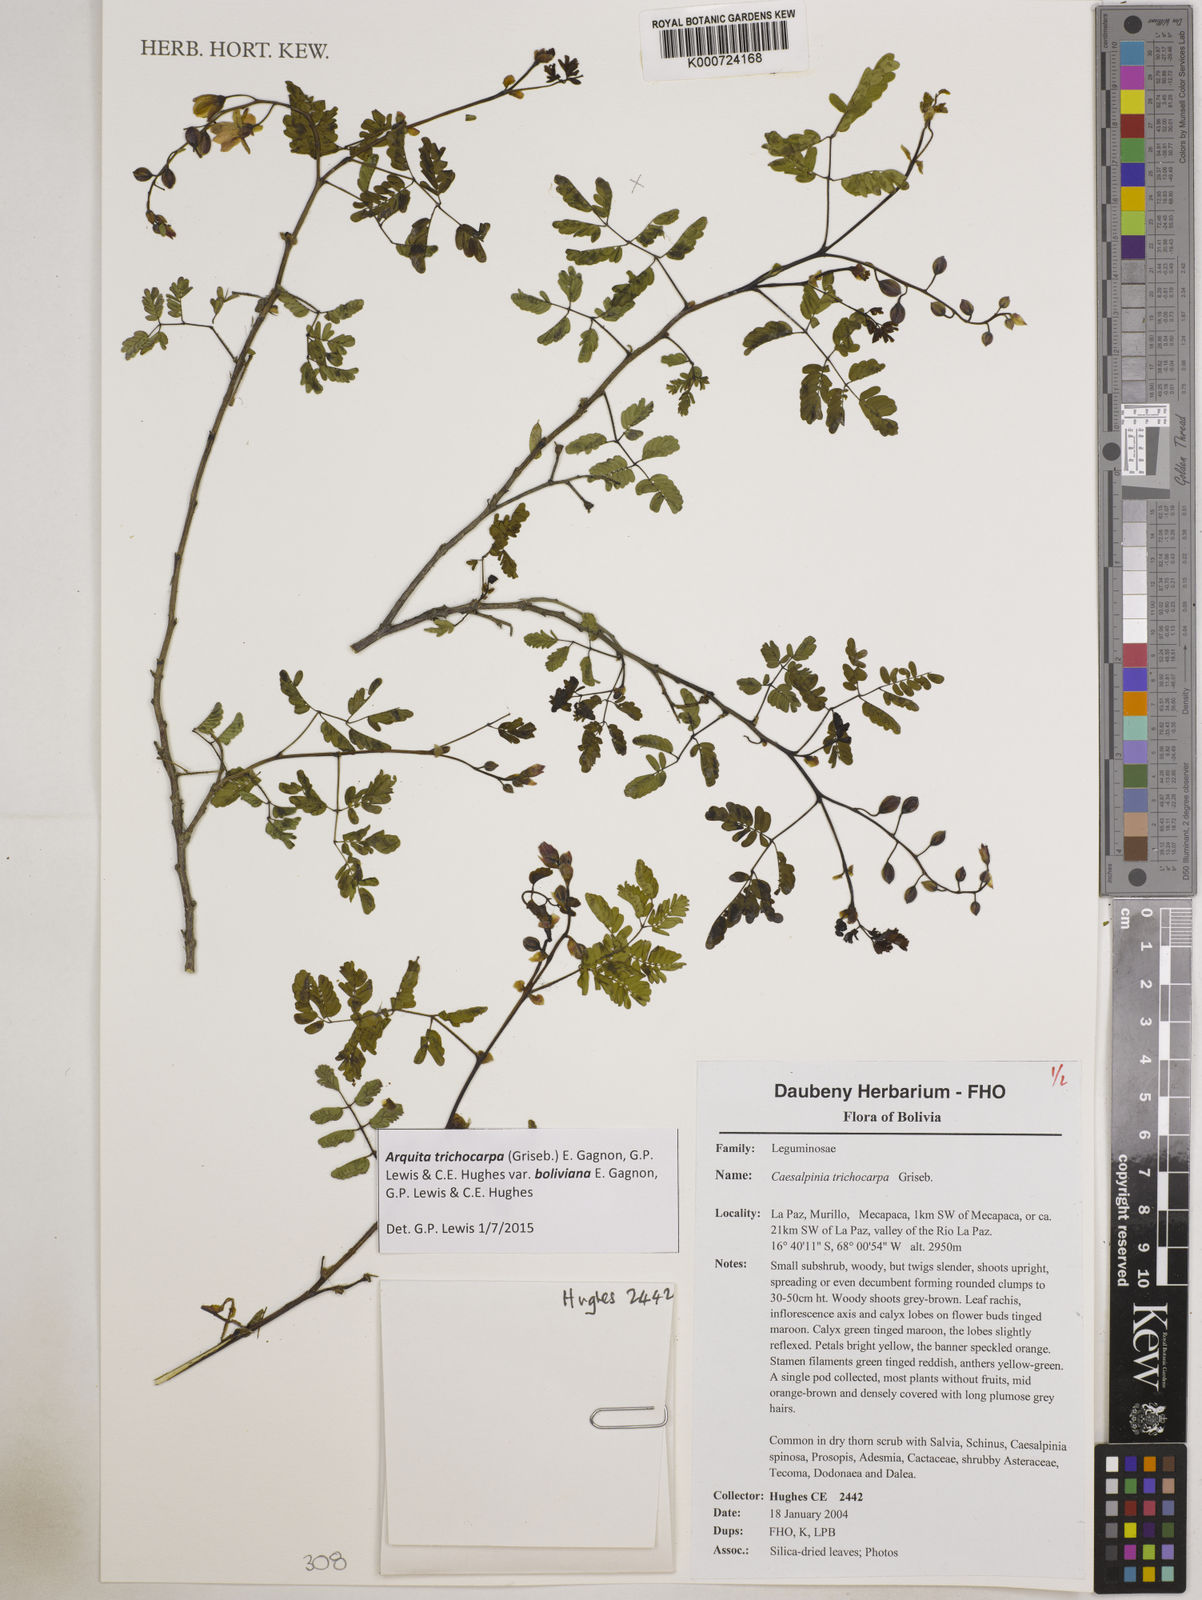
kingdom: Plantae
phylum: Tracheophyta
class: Magnoliopsida
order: Fabales
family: Fabaceae
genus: Arquita
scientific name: Arquita trichocarpa
